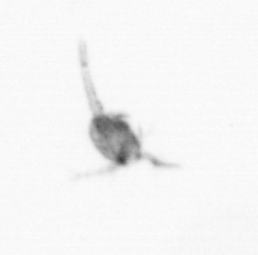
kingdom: Animalia
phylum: Arthropoda
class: Copepoda
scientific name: Copepoda
